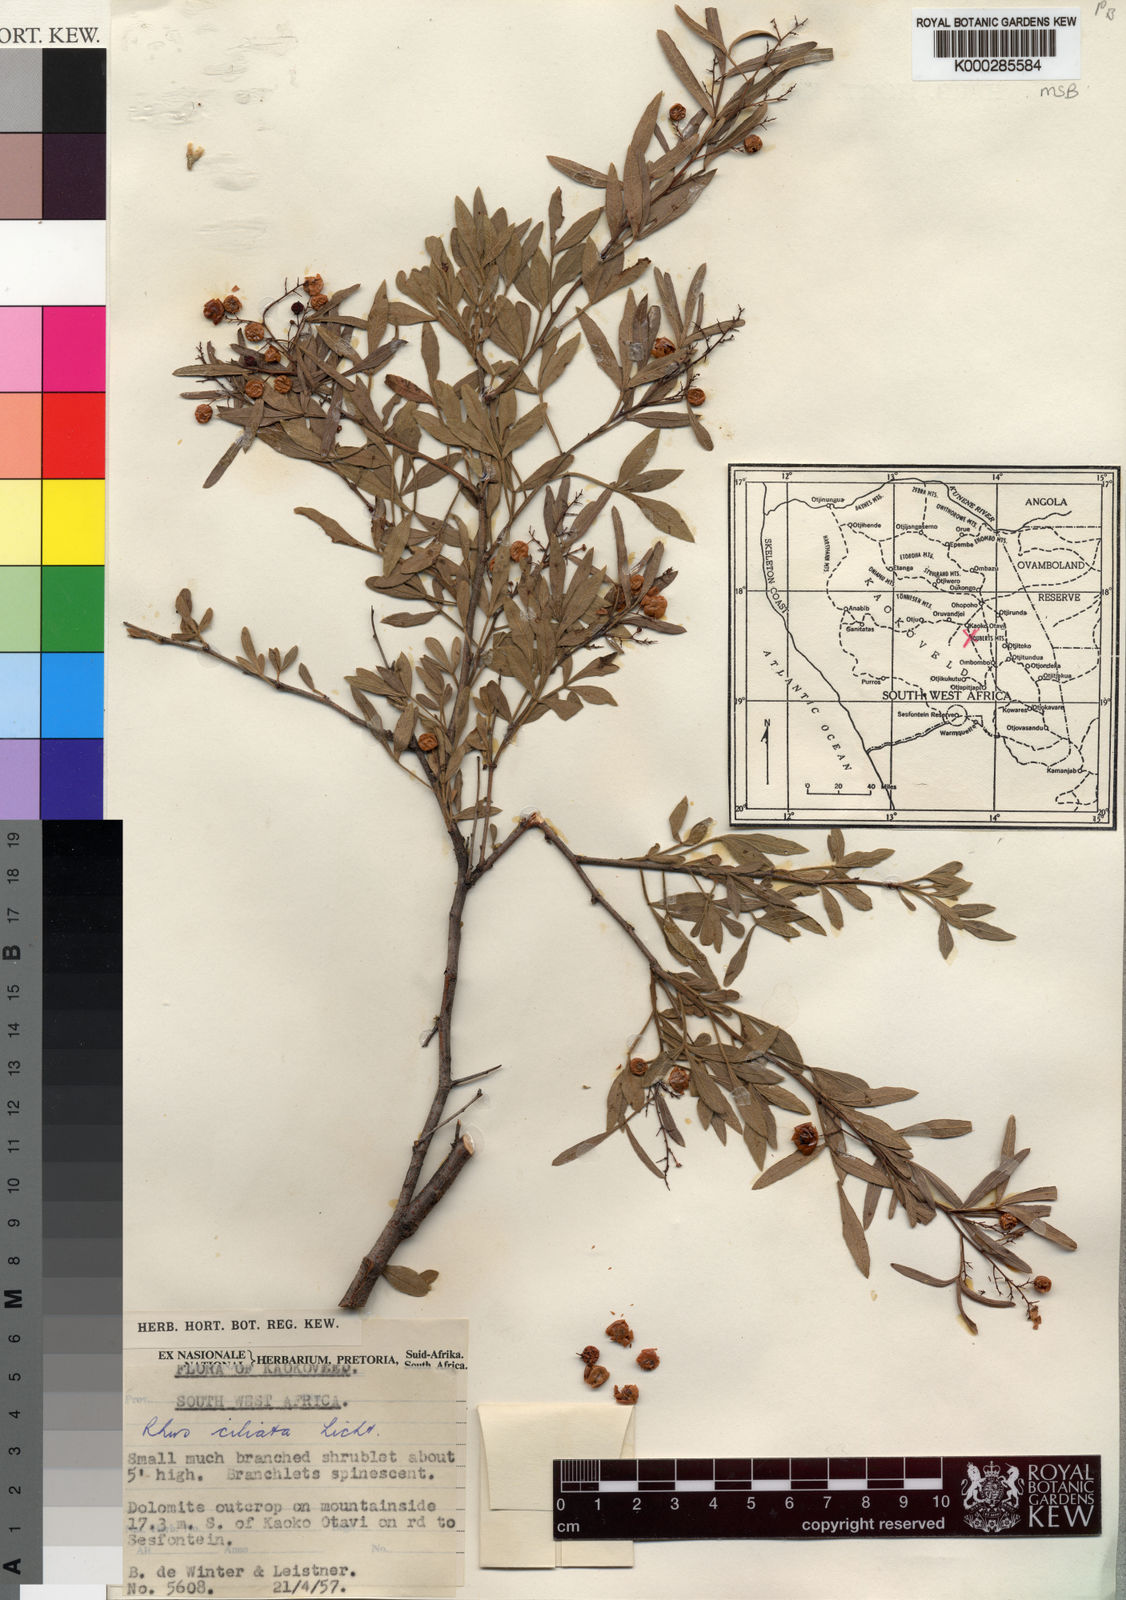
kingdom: Plantae
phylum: Tracheophyta
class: Magnoliopsida
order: Sapindales
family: Anacardiaceae
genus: Searsia
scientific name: Searsia ciliata
